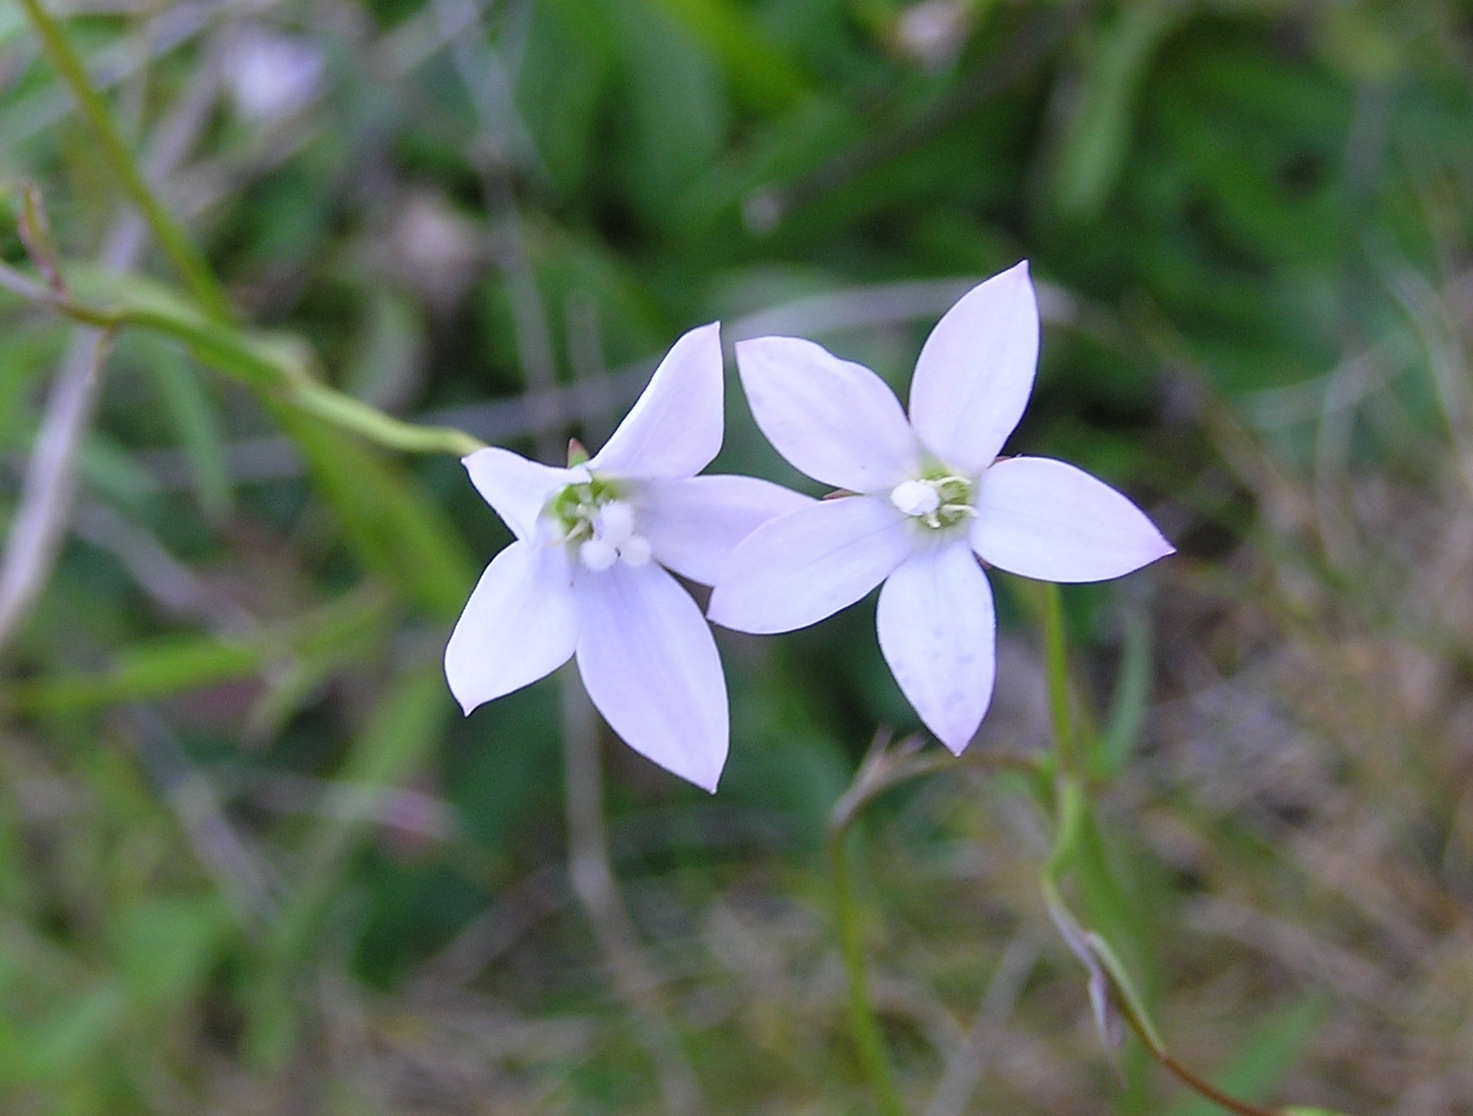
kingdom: Plantae
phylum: Tracheophyta
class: Magnoliopsida
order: Asterales
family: Campanulaceae
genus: Wahlenbergia
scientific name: Wahlenbergia violacea
